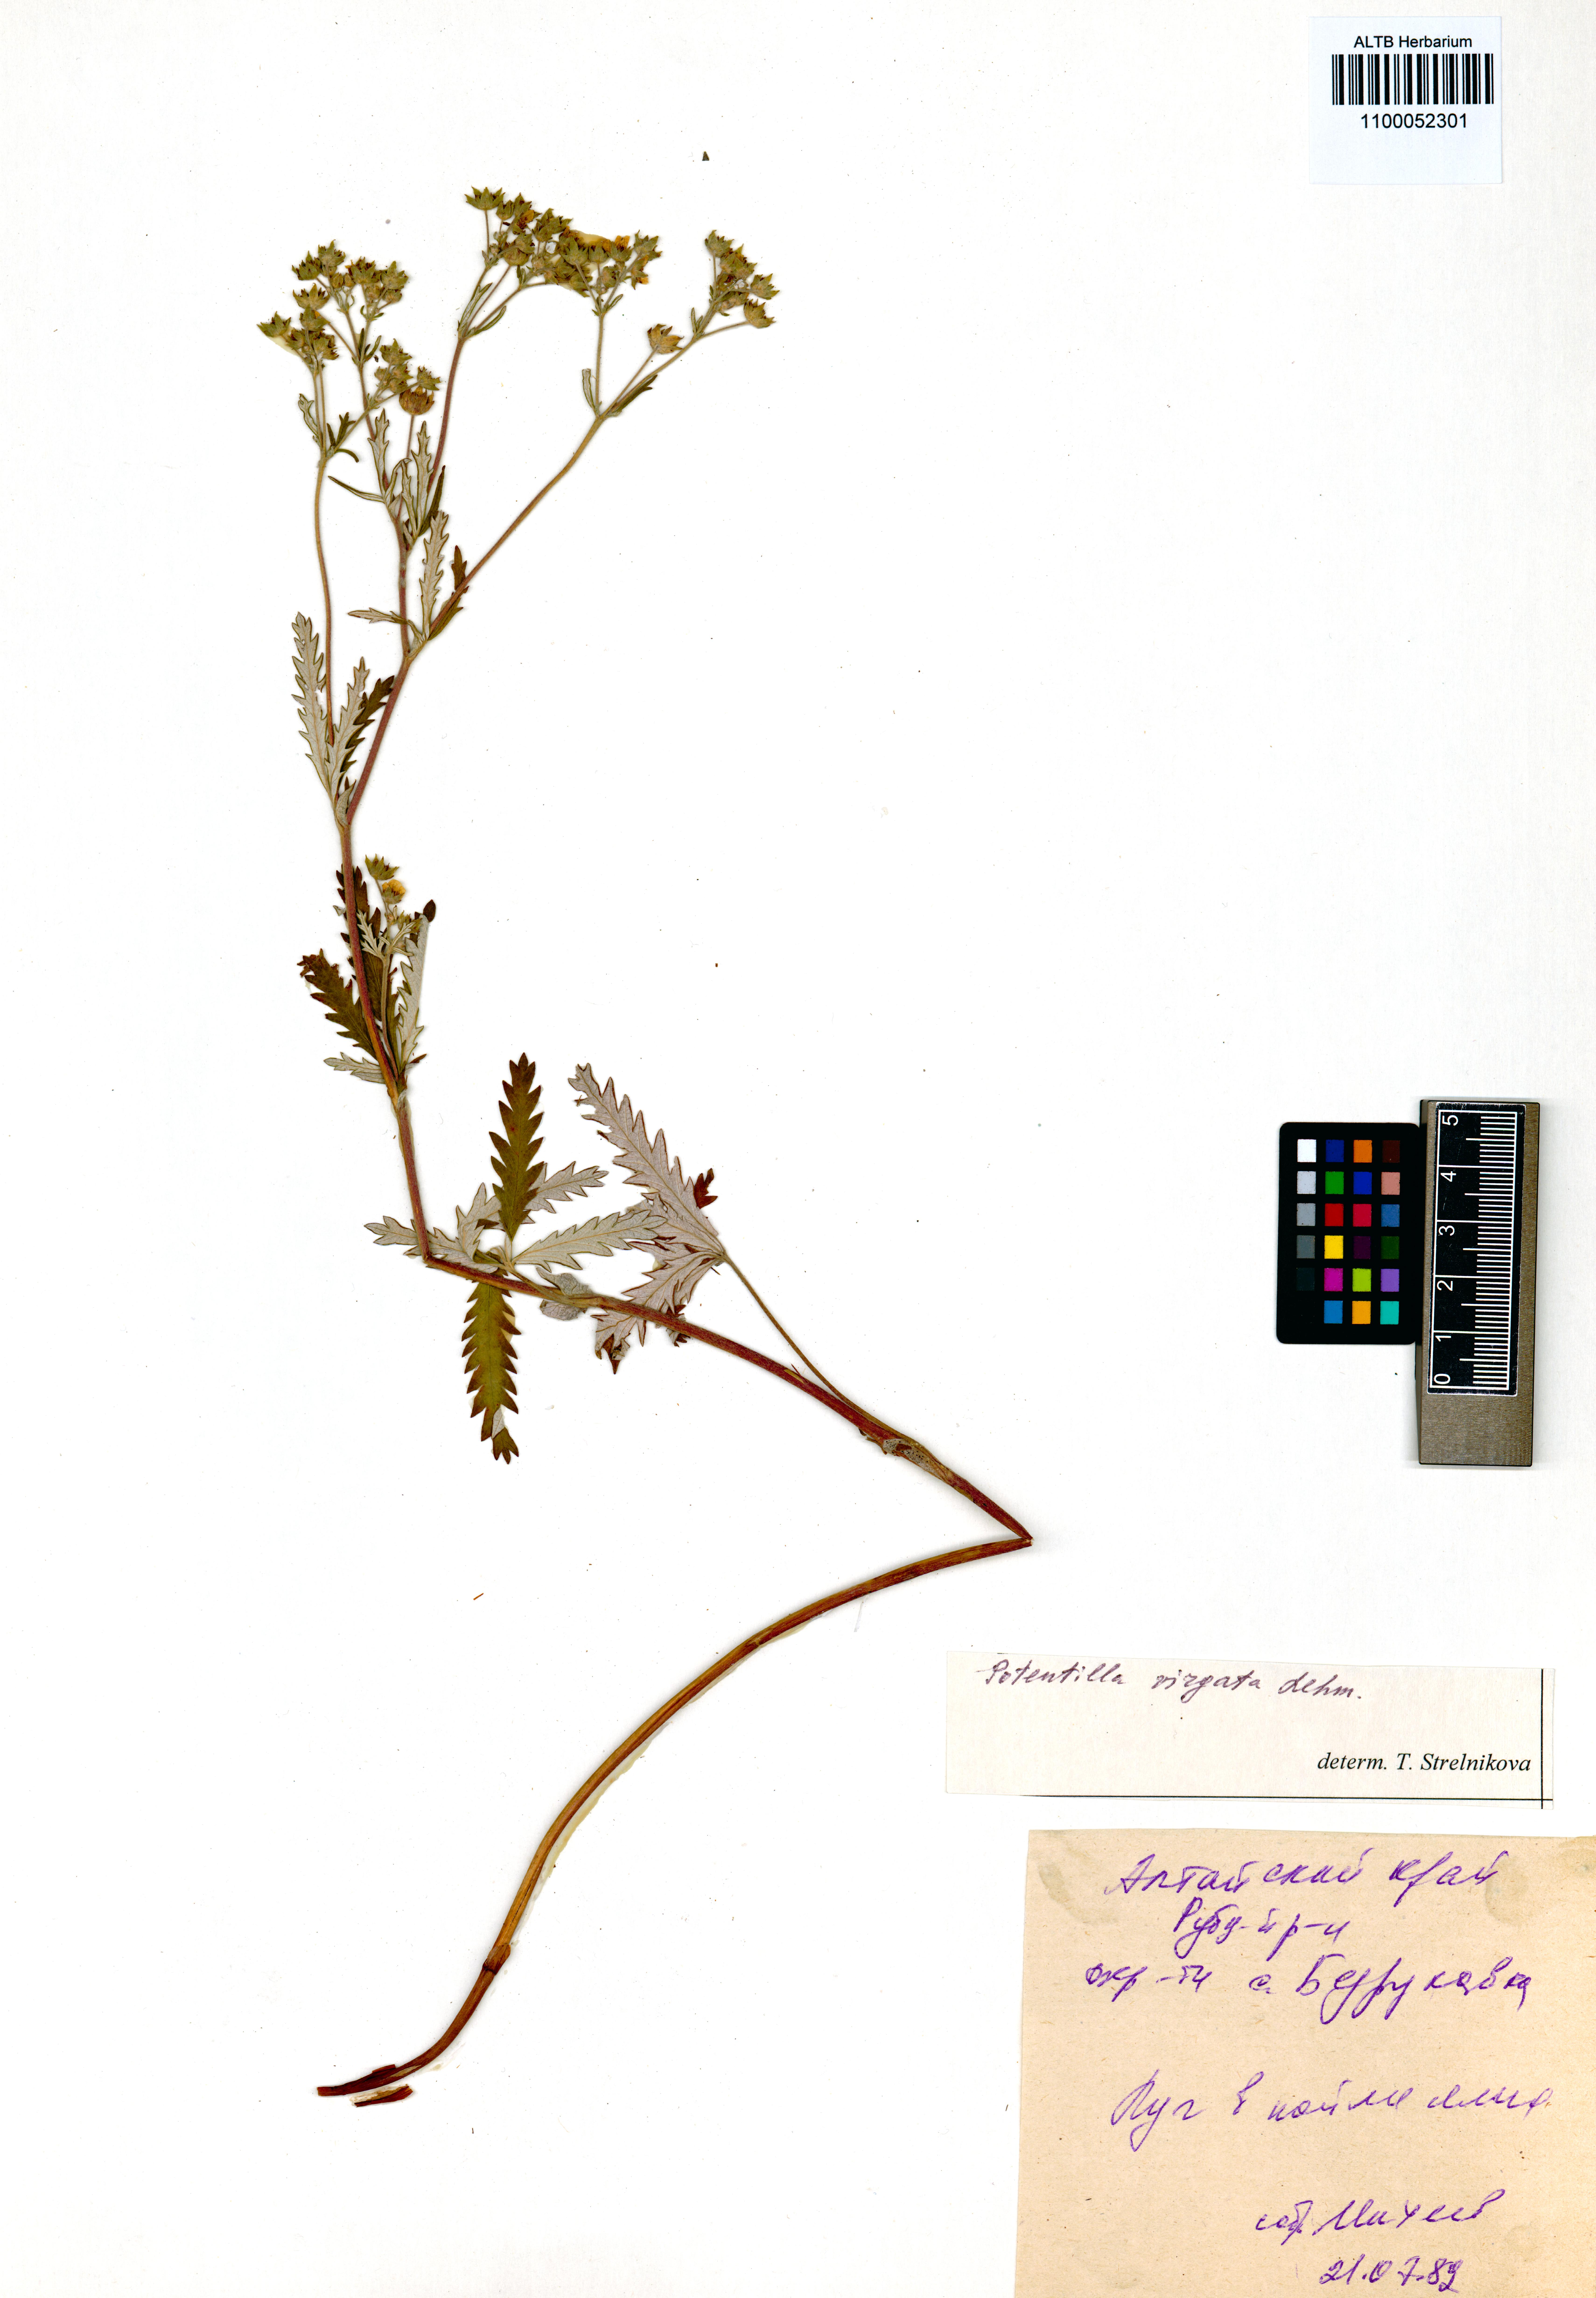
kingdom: Plantae
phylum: Tracheophyta
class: Magnoliopsida
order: Rosales
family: Rosaceae
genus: Potentilla
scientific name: Potentilla virgata
